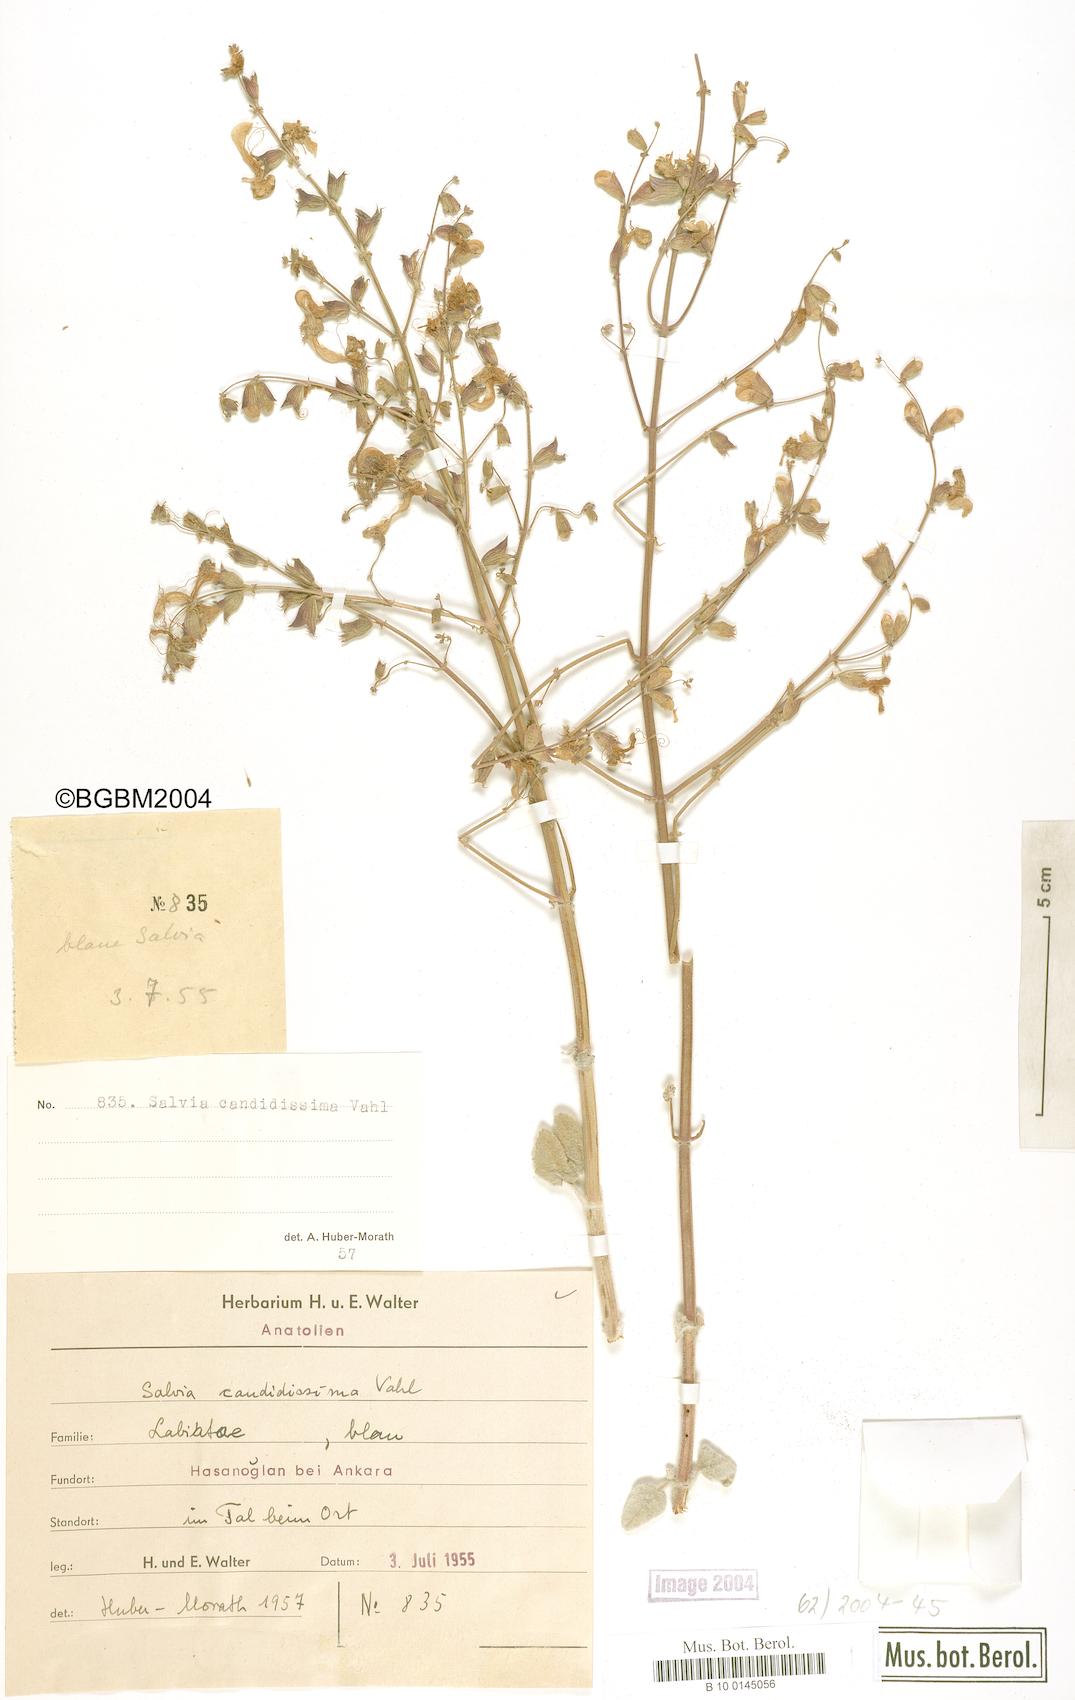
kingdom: Plantae
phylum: Tracheophyta
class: Magnoliopsida
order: Lamiales
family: Lamiaceae
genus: Salvia
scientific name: Salvia candidissima
